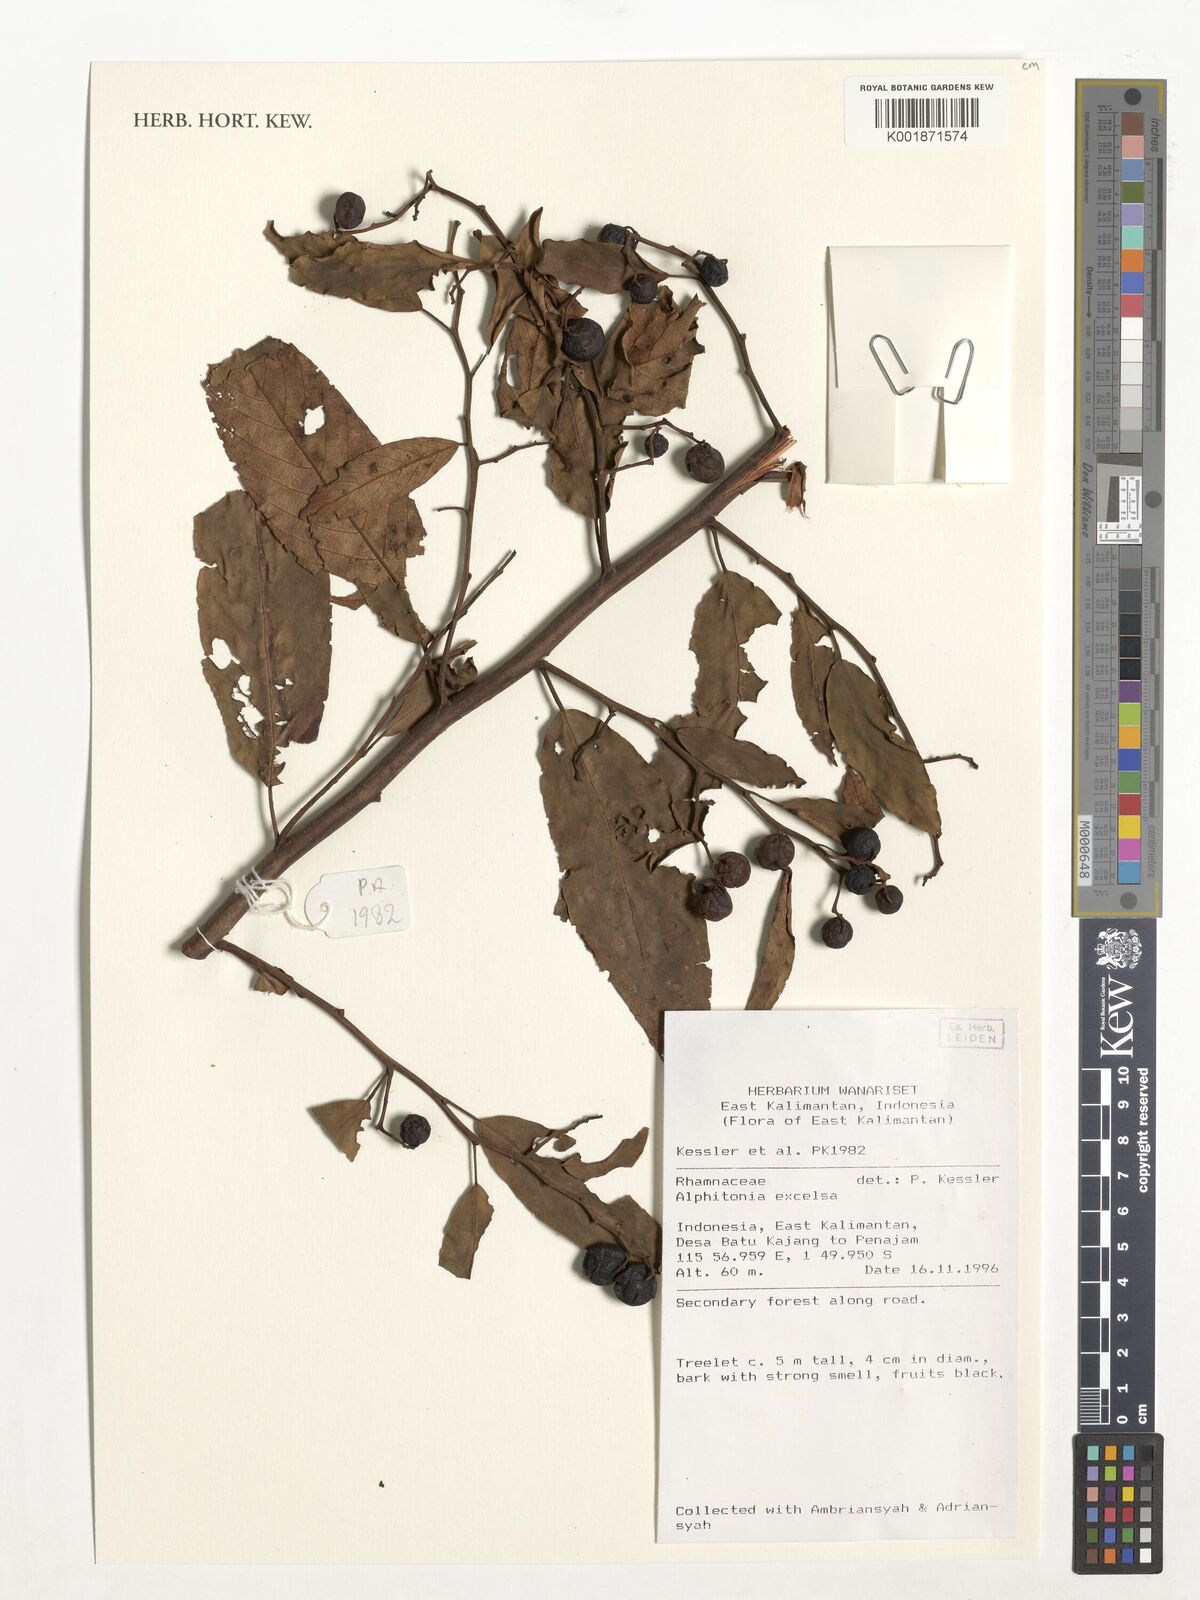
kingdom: Plantae
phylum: Tracheophyta
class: Magnoliopsida
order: Rosales
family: Rhamnaceae
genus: Alphitonia
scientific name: Alphitonia excelsa
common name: Red ash
